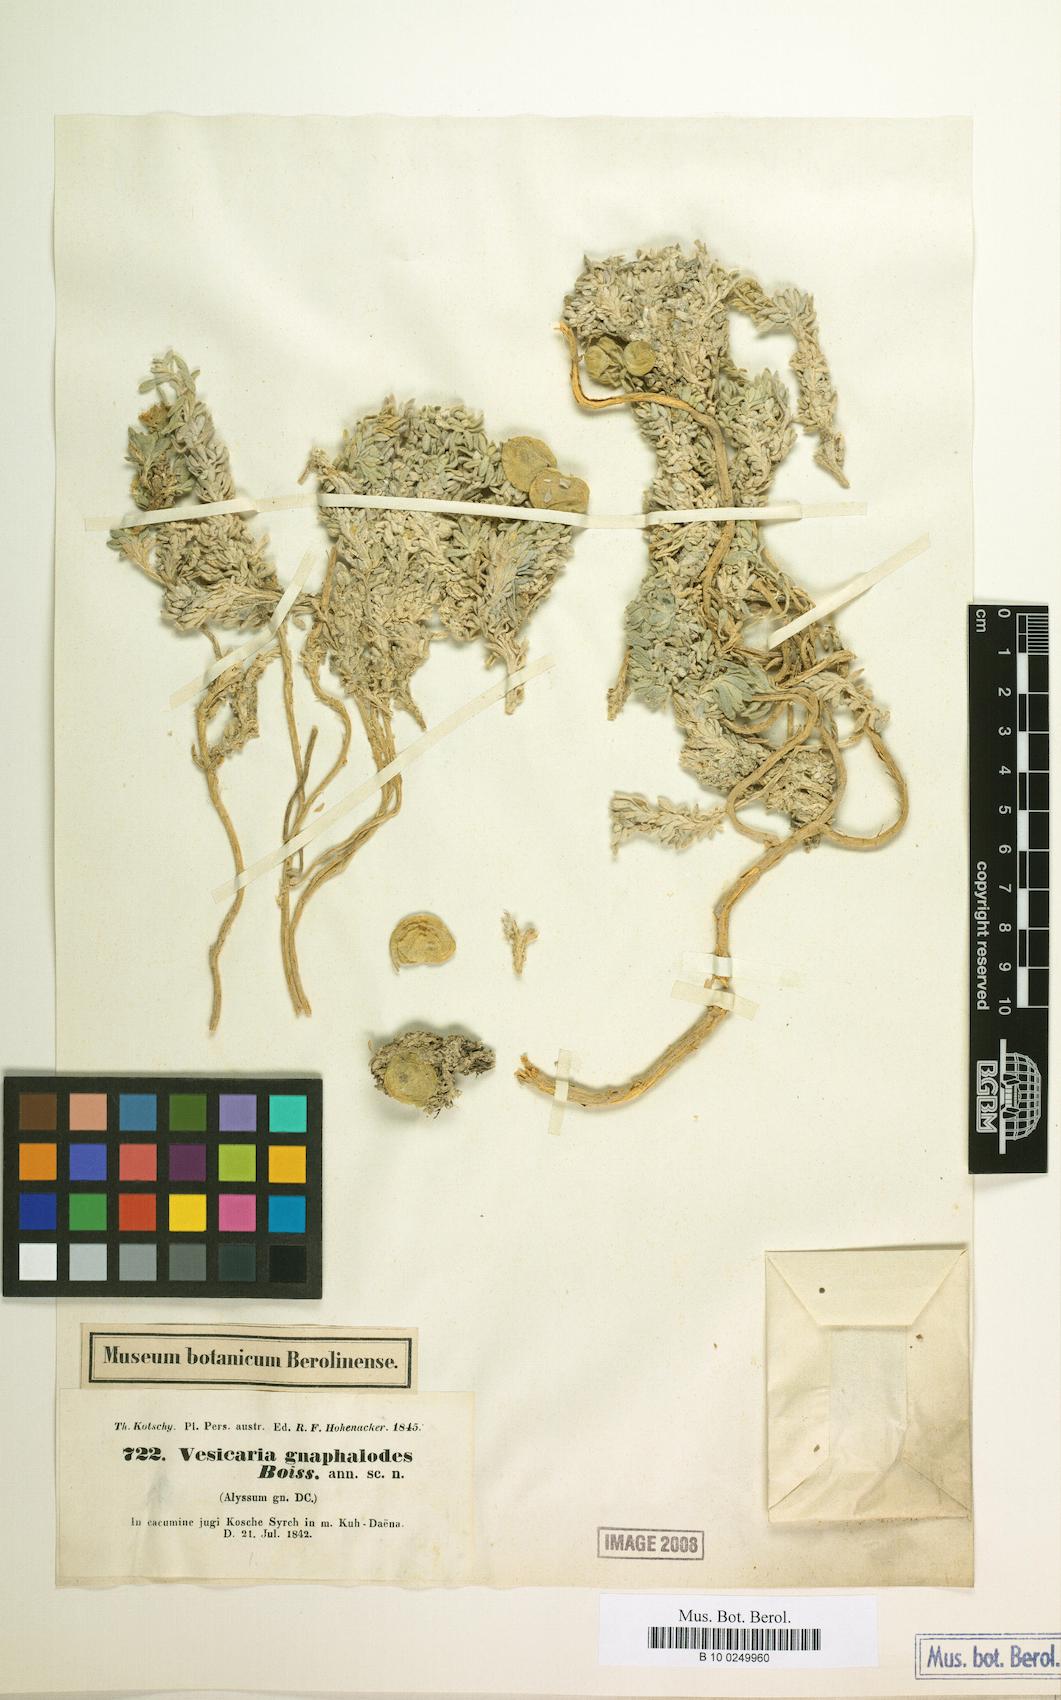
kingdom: Plantae
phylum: Tracheophyta
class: Magnoliopsida
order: Brassicales
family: Brassicaceae
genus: Physoptychis
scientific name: Physoptychis caspica
